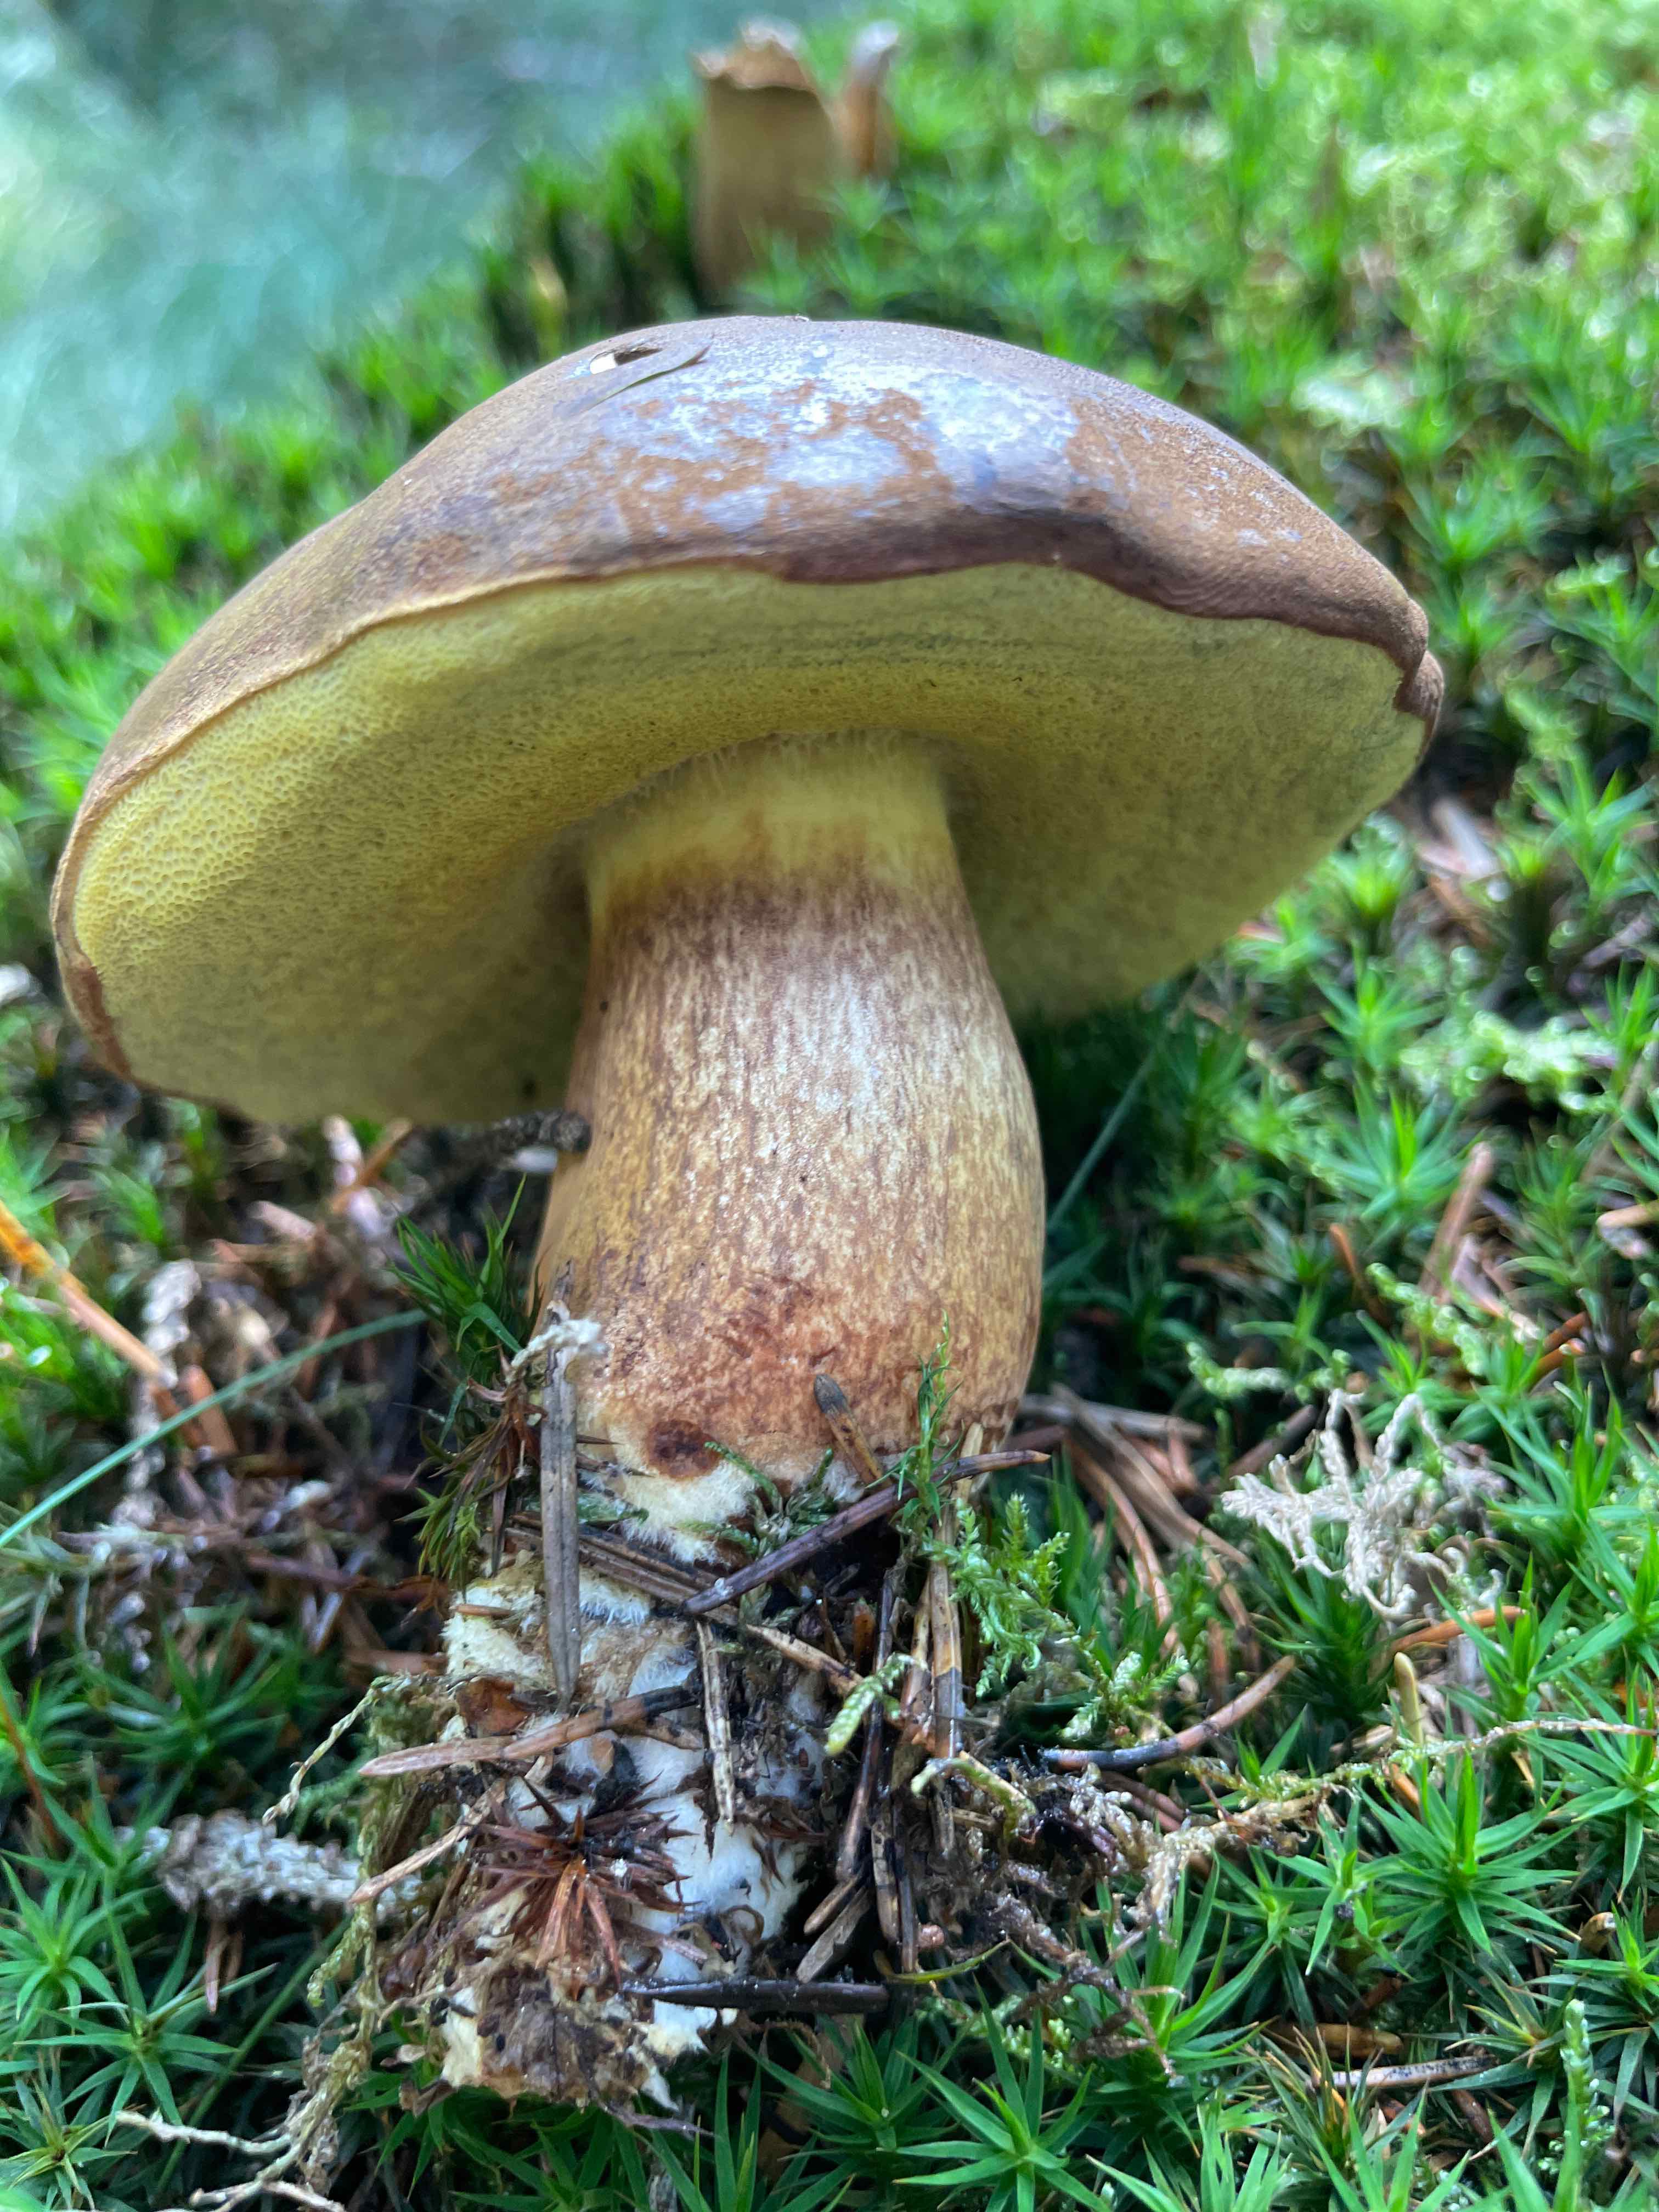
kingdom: Fungi
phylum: Basidiomycota
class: Agaricomycetes
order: Boletales
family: Boletaceae
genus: Imleria
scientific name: Imleria badia
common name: brunstokket rørhat
